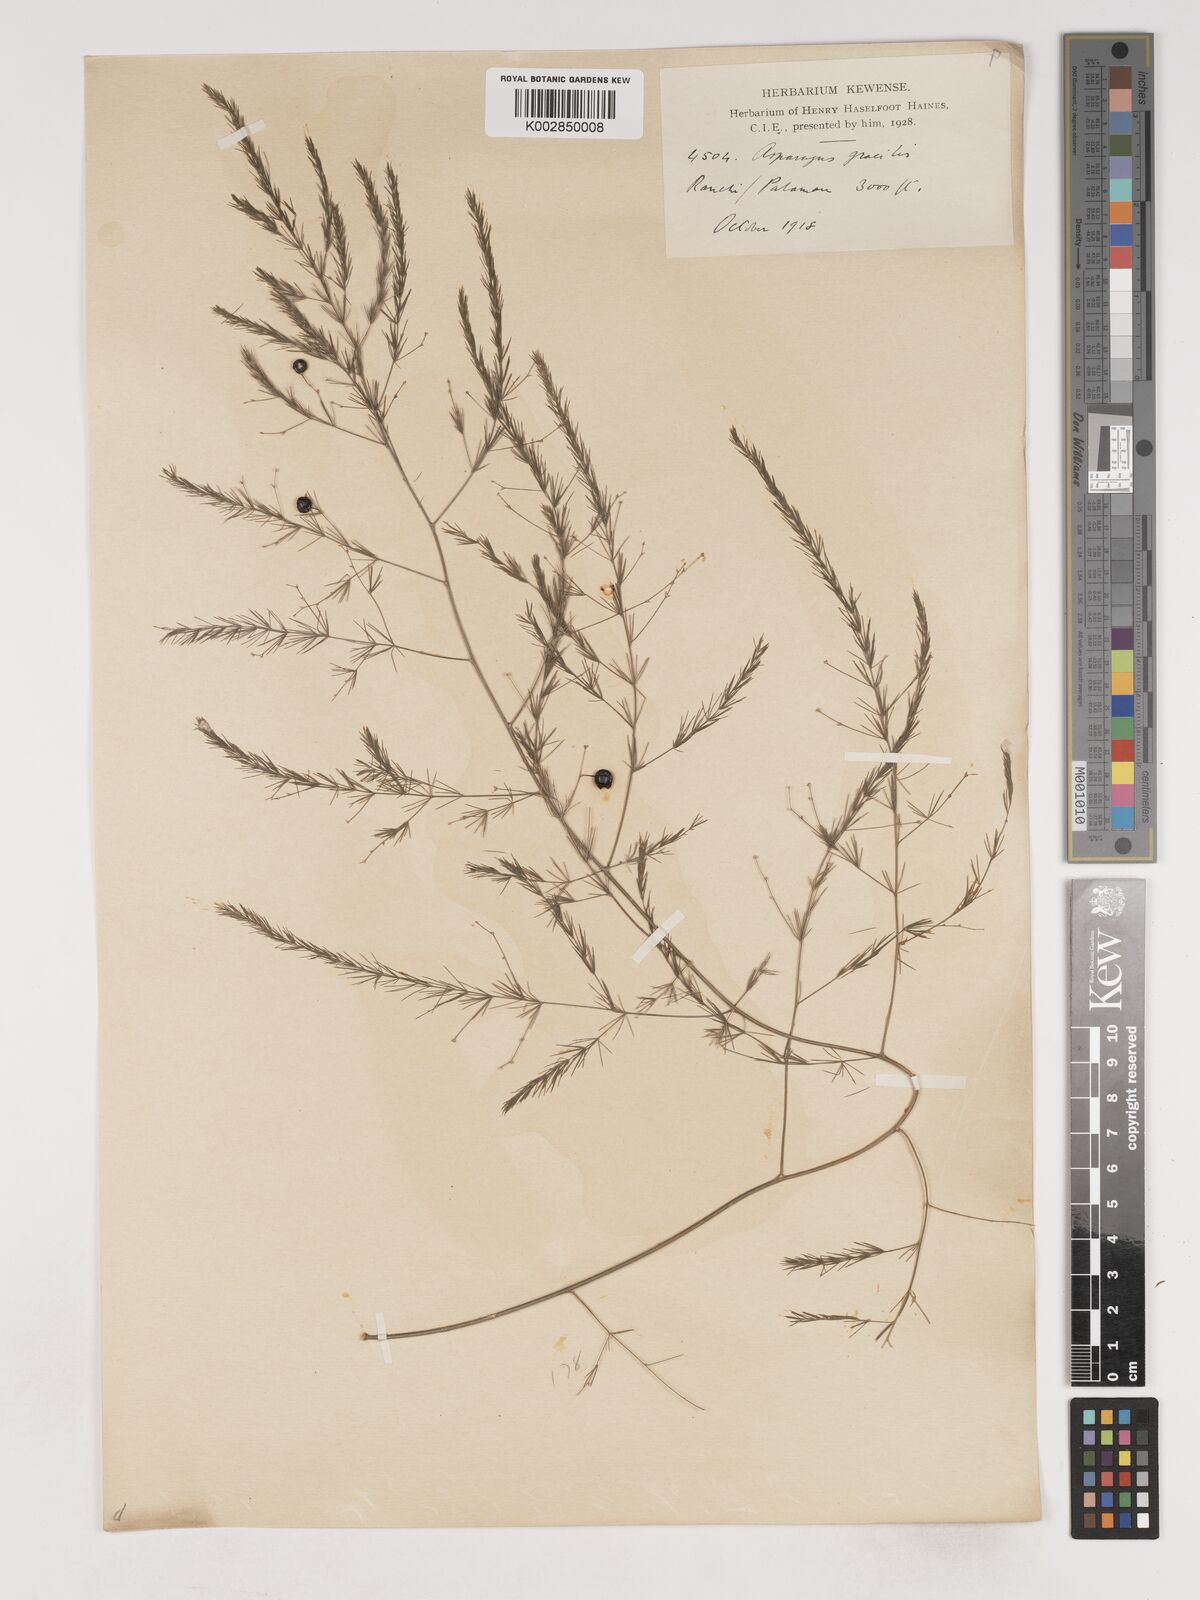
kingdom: Plantae
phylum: Tracheophyta
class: Liliopsida
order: Asparagales
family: Asparagaceae
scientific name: Asparagaceae
